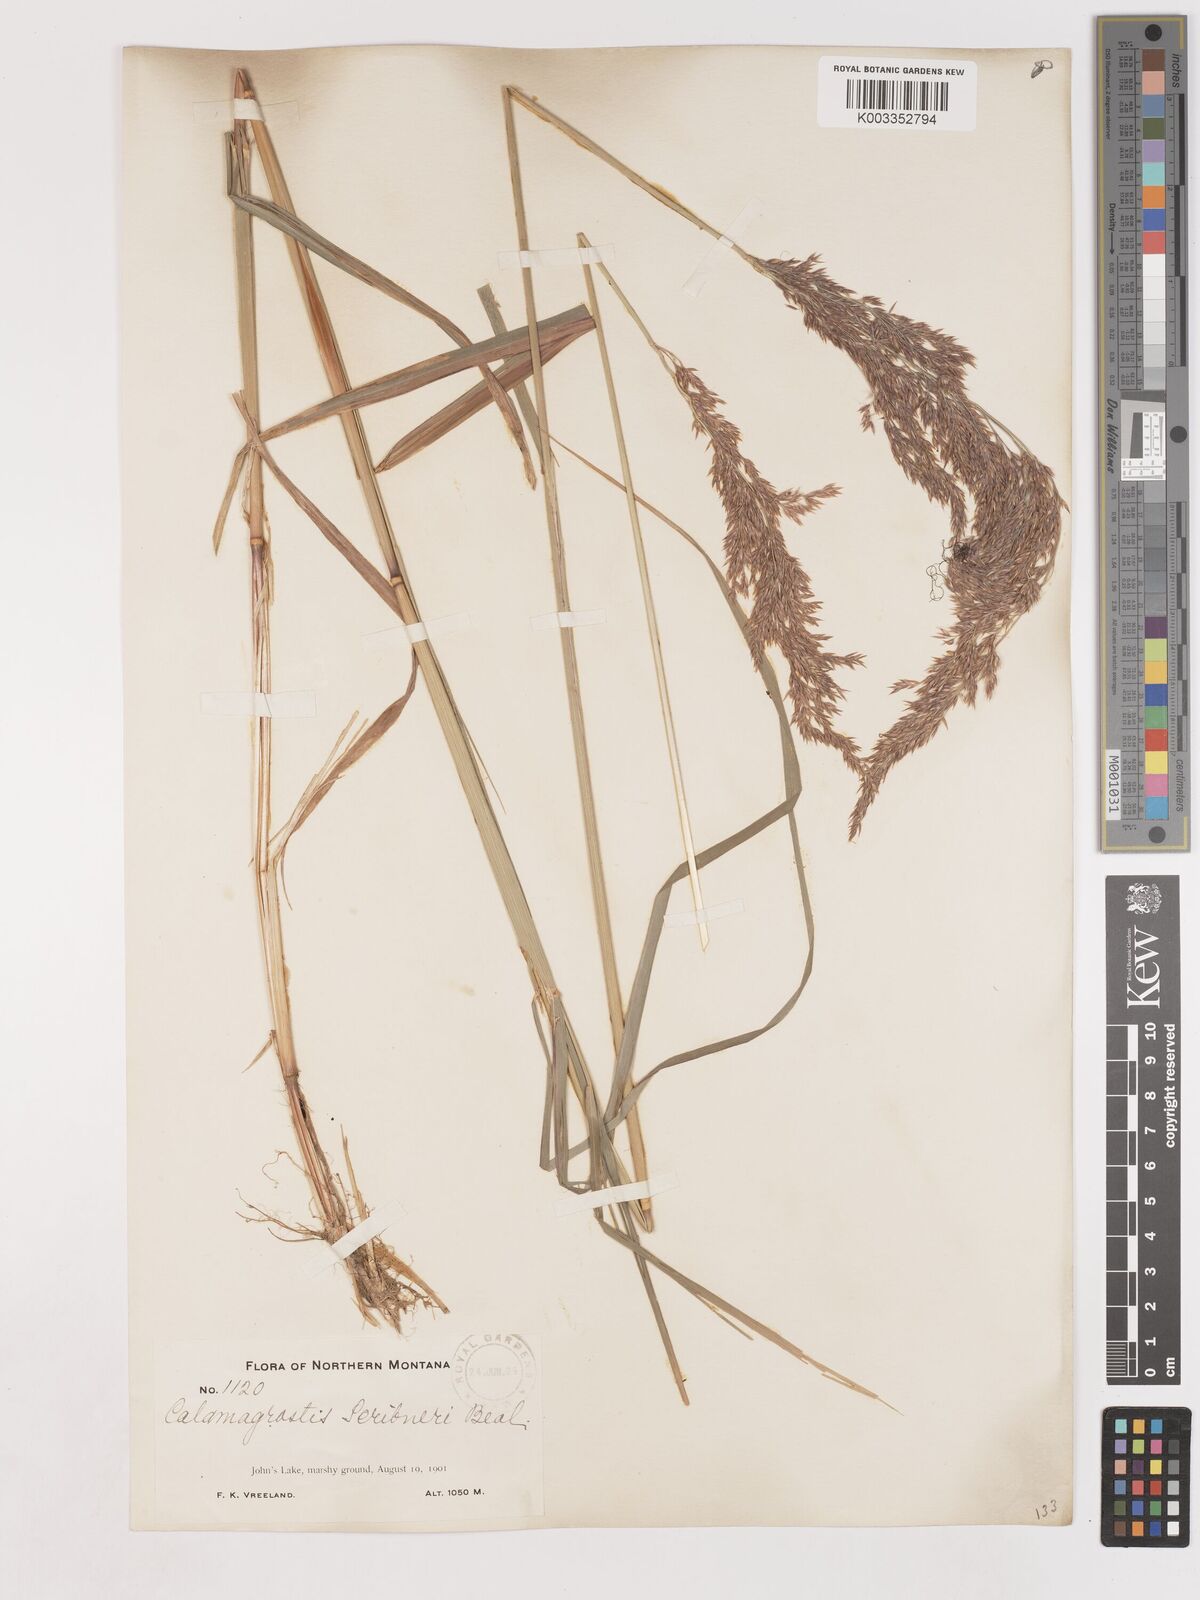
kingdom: Plantae
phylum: Tracheophyta
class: Liliopsida
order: Poales
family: Poaceae
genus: Calamagrostis
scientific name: Calamagrostis canadensis
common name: Canada bluejoint
